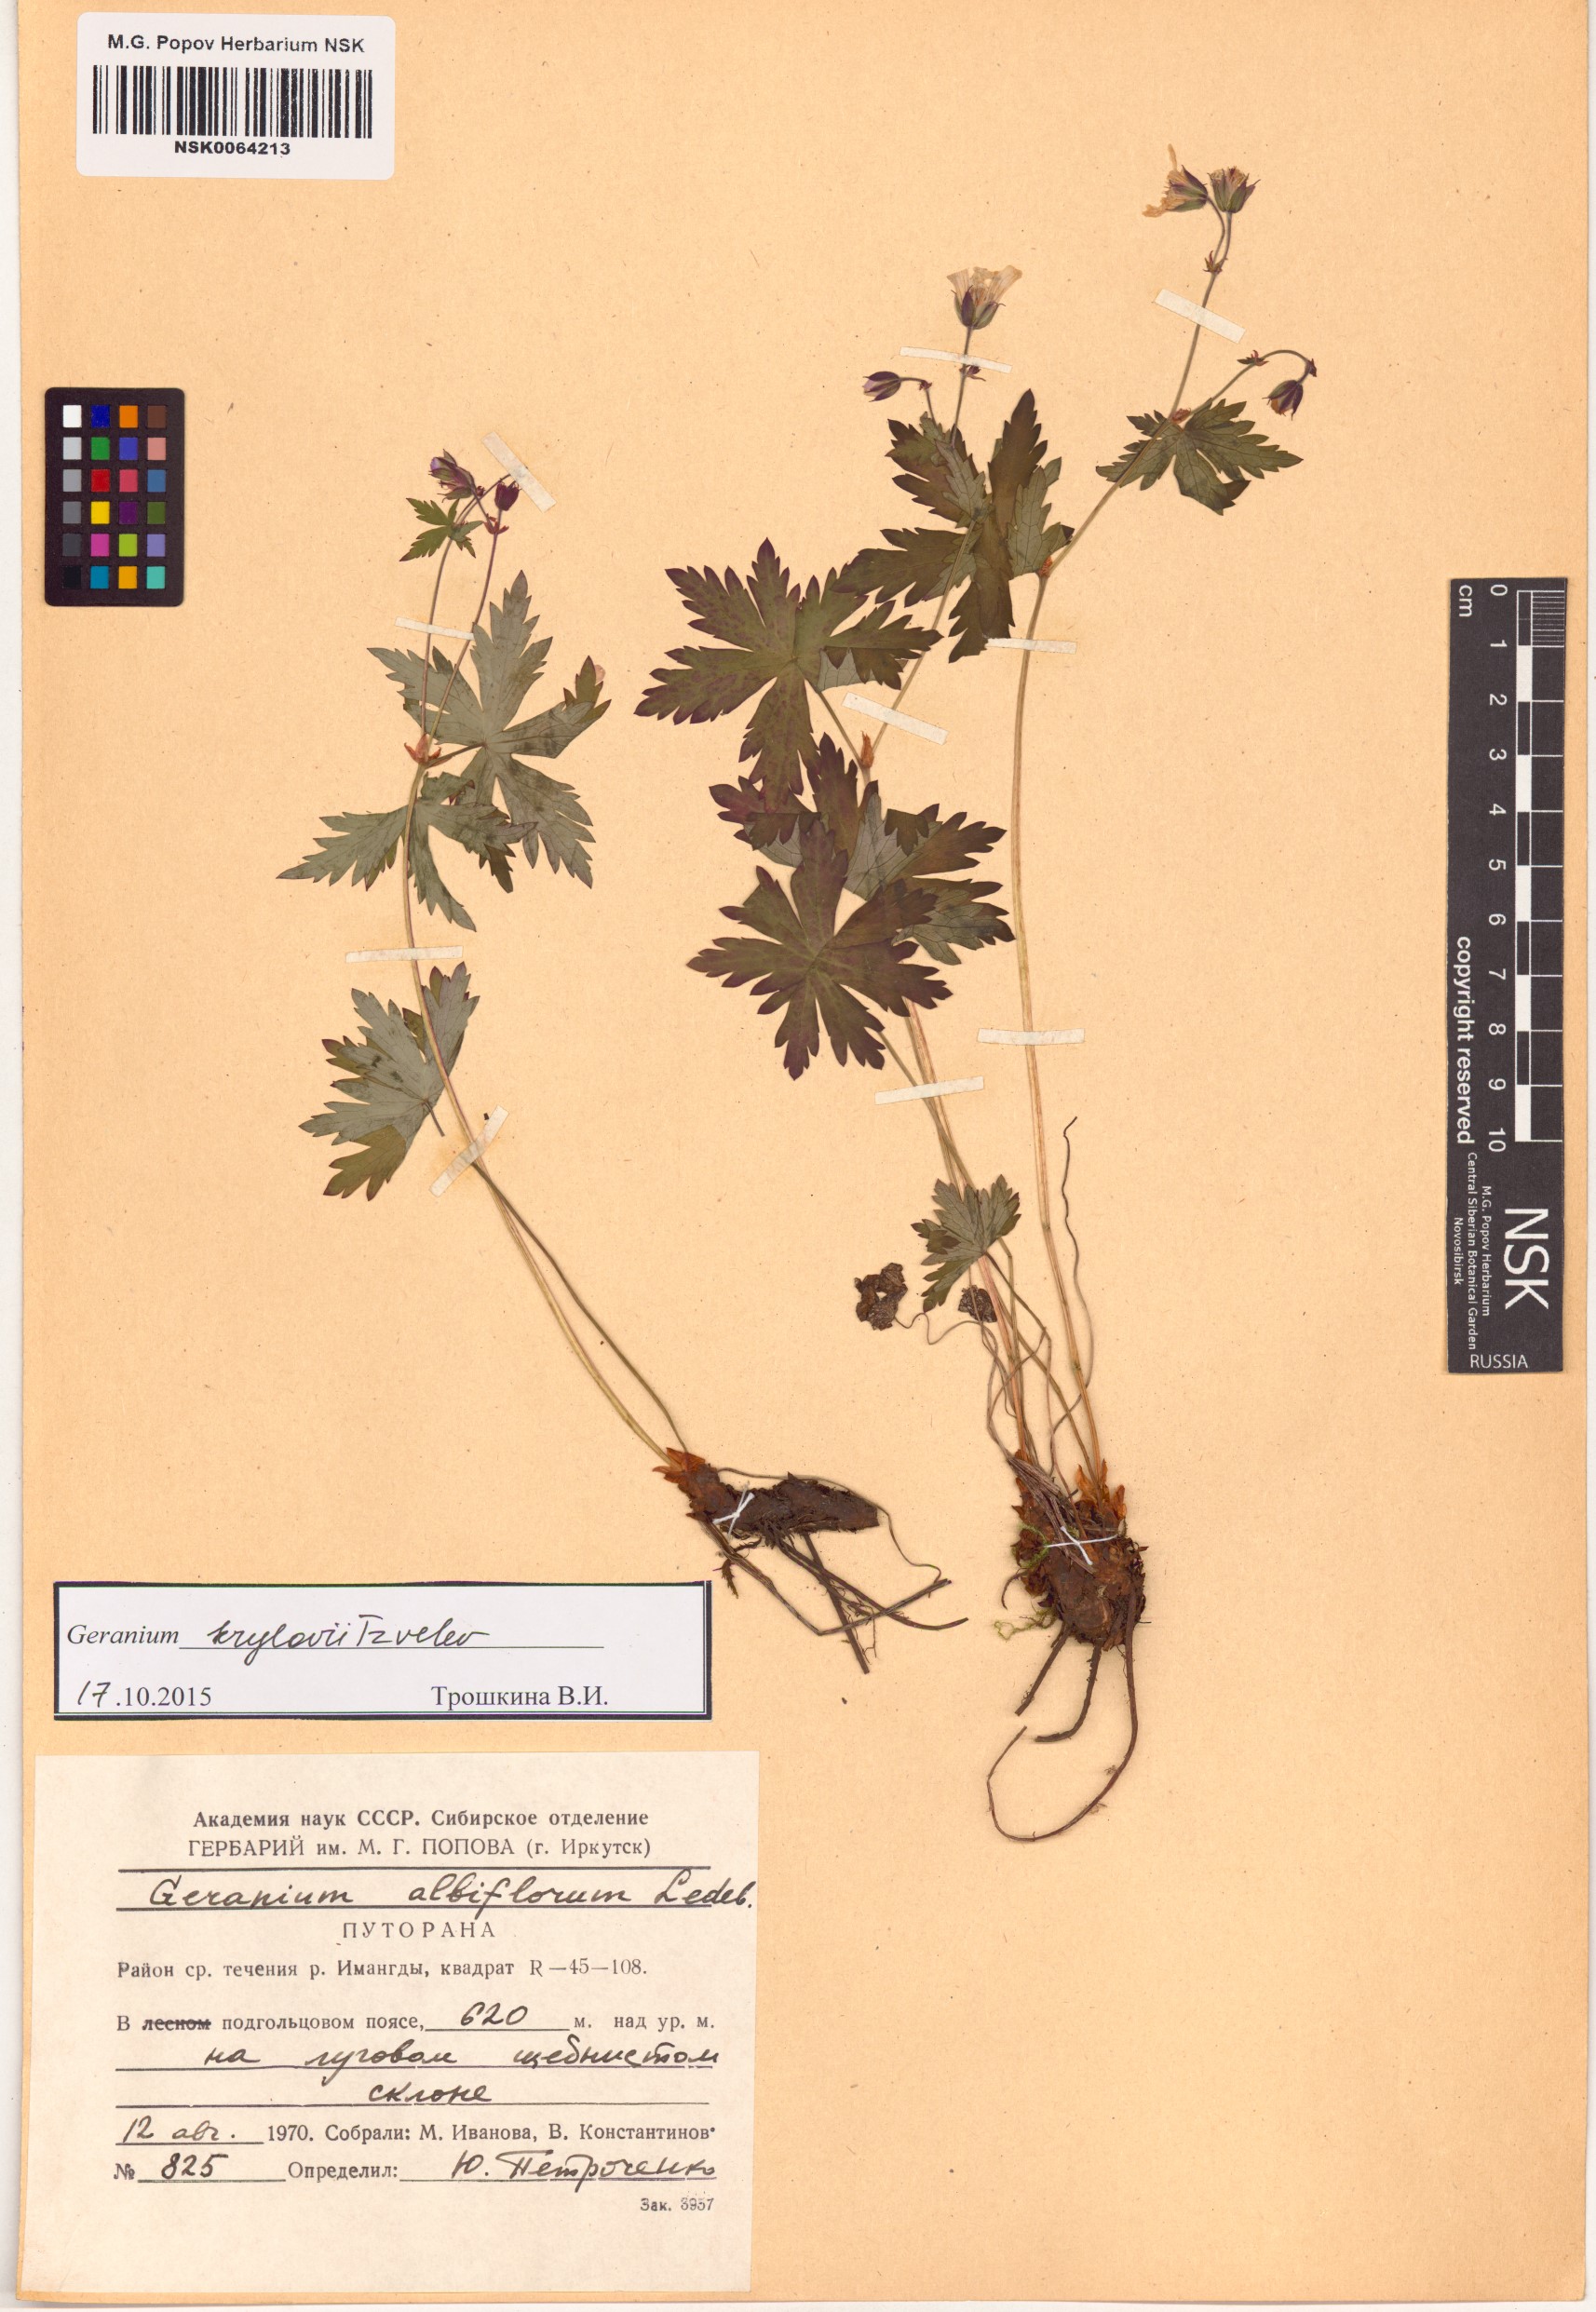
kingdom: Plantae
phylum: Tracheophyta
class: Magnoliopsida
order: Geraniales
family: Geraniaceae
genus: Geranium
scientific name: Geranium sylvaticum
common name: Wood crane's-bill
